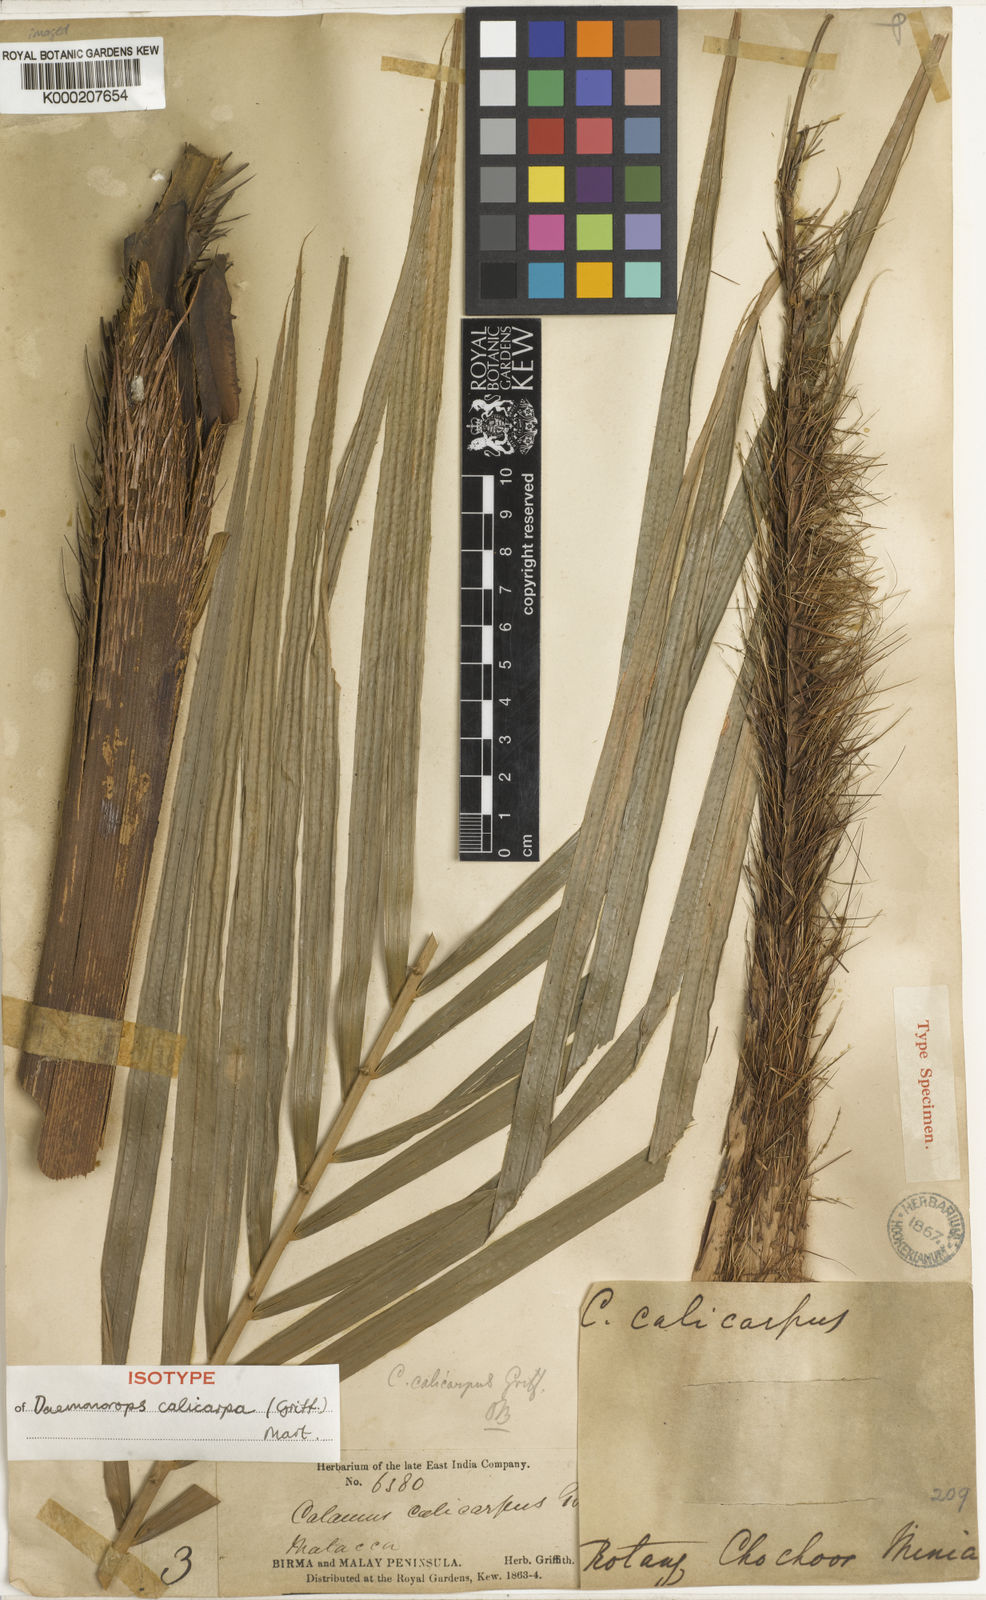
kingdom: Plantae
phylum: Tracheophyta
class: Liliopsida
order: Arecales
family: Arecaceae
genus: Calamus
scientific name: Calamus calicarpus
